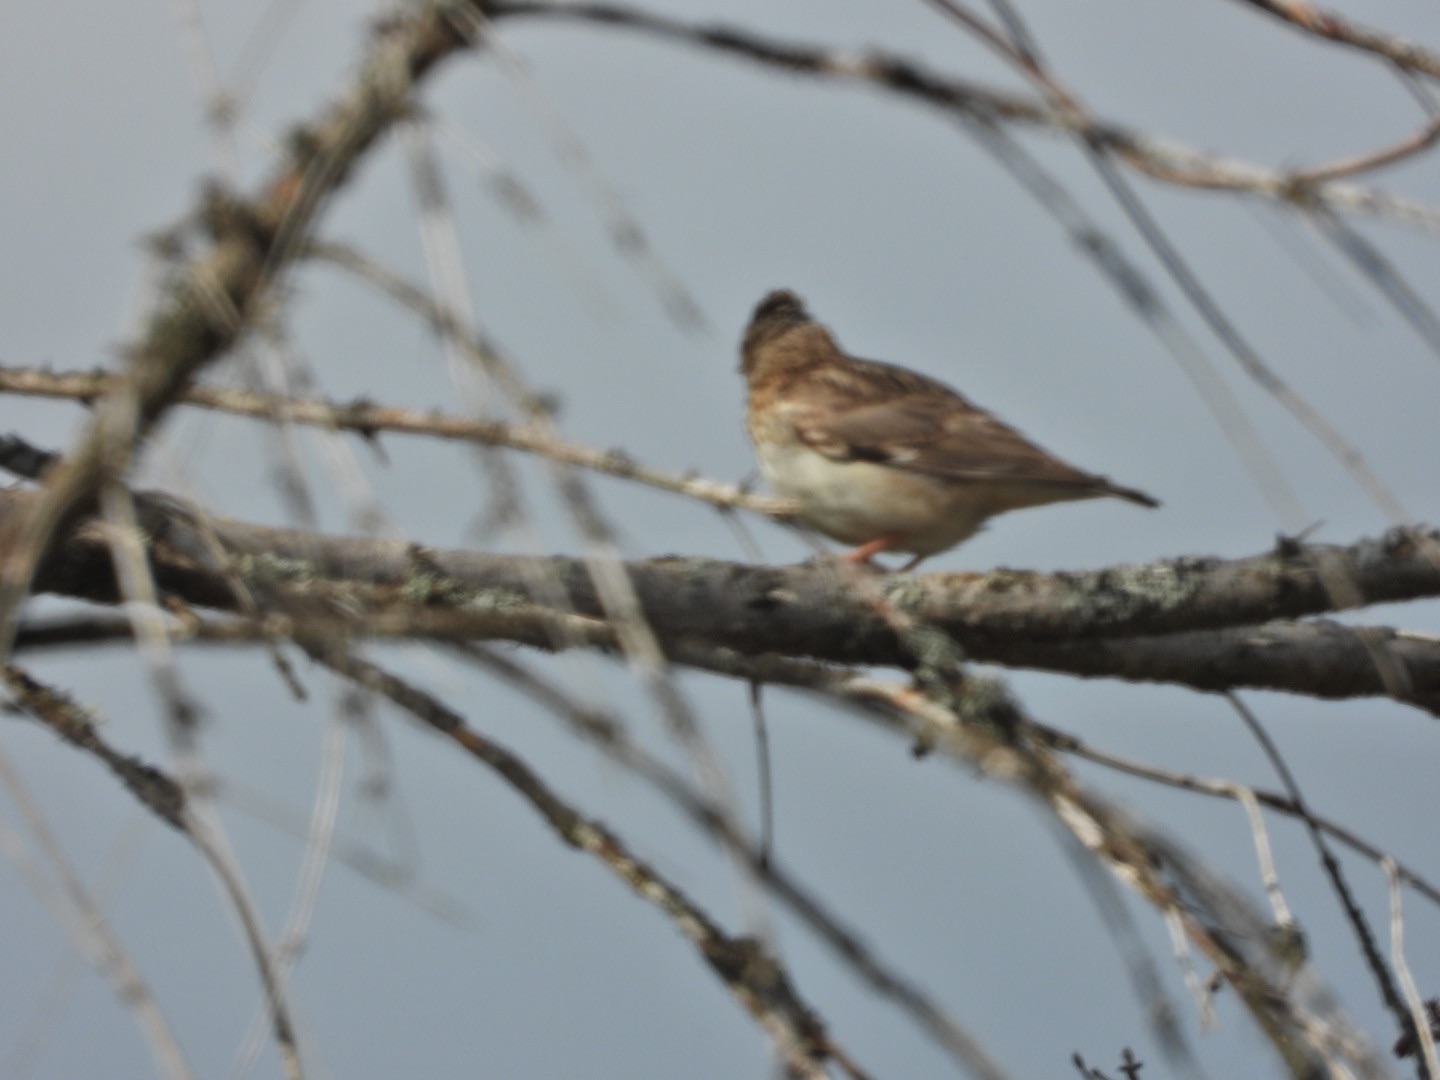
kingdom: Animalia
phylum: Chordata
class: Aves
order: Passeriformes
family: Alaudidae
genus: Lullula
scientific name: Lullula arborea
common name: Hedelærke
